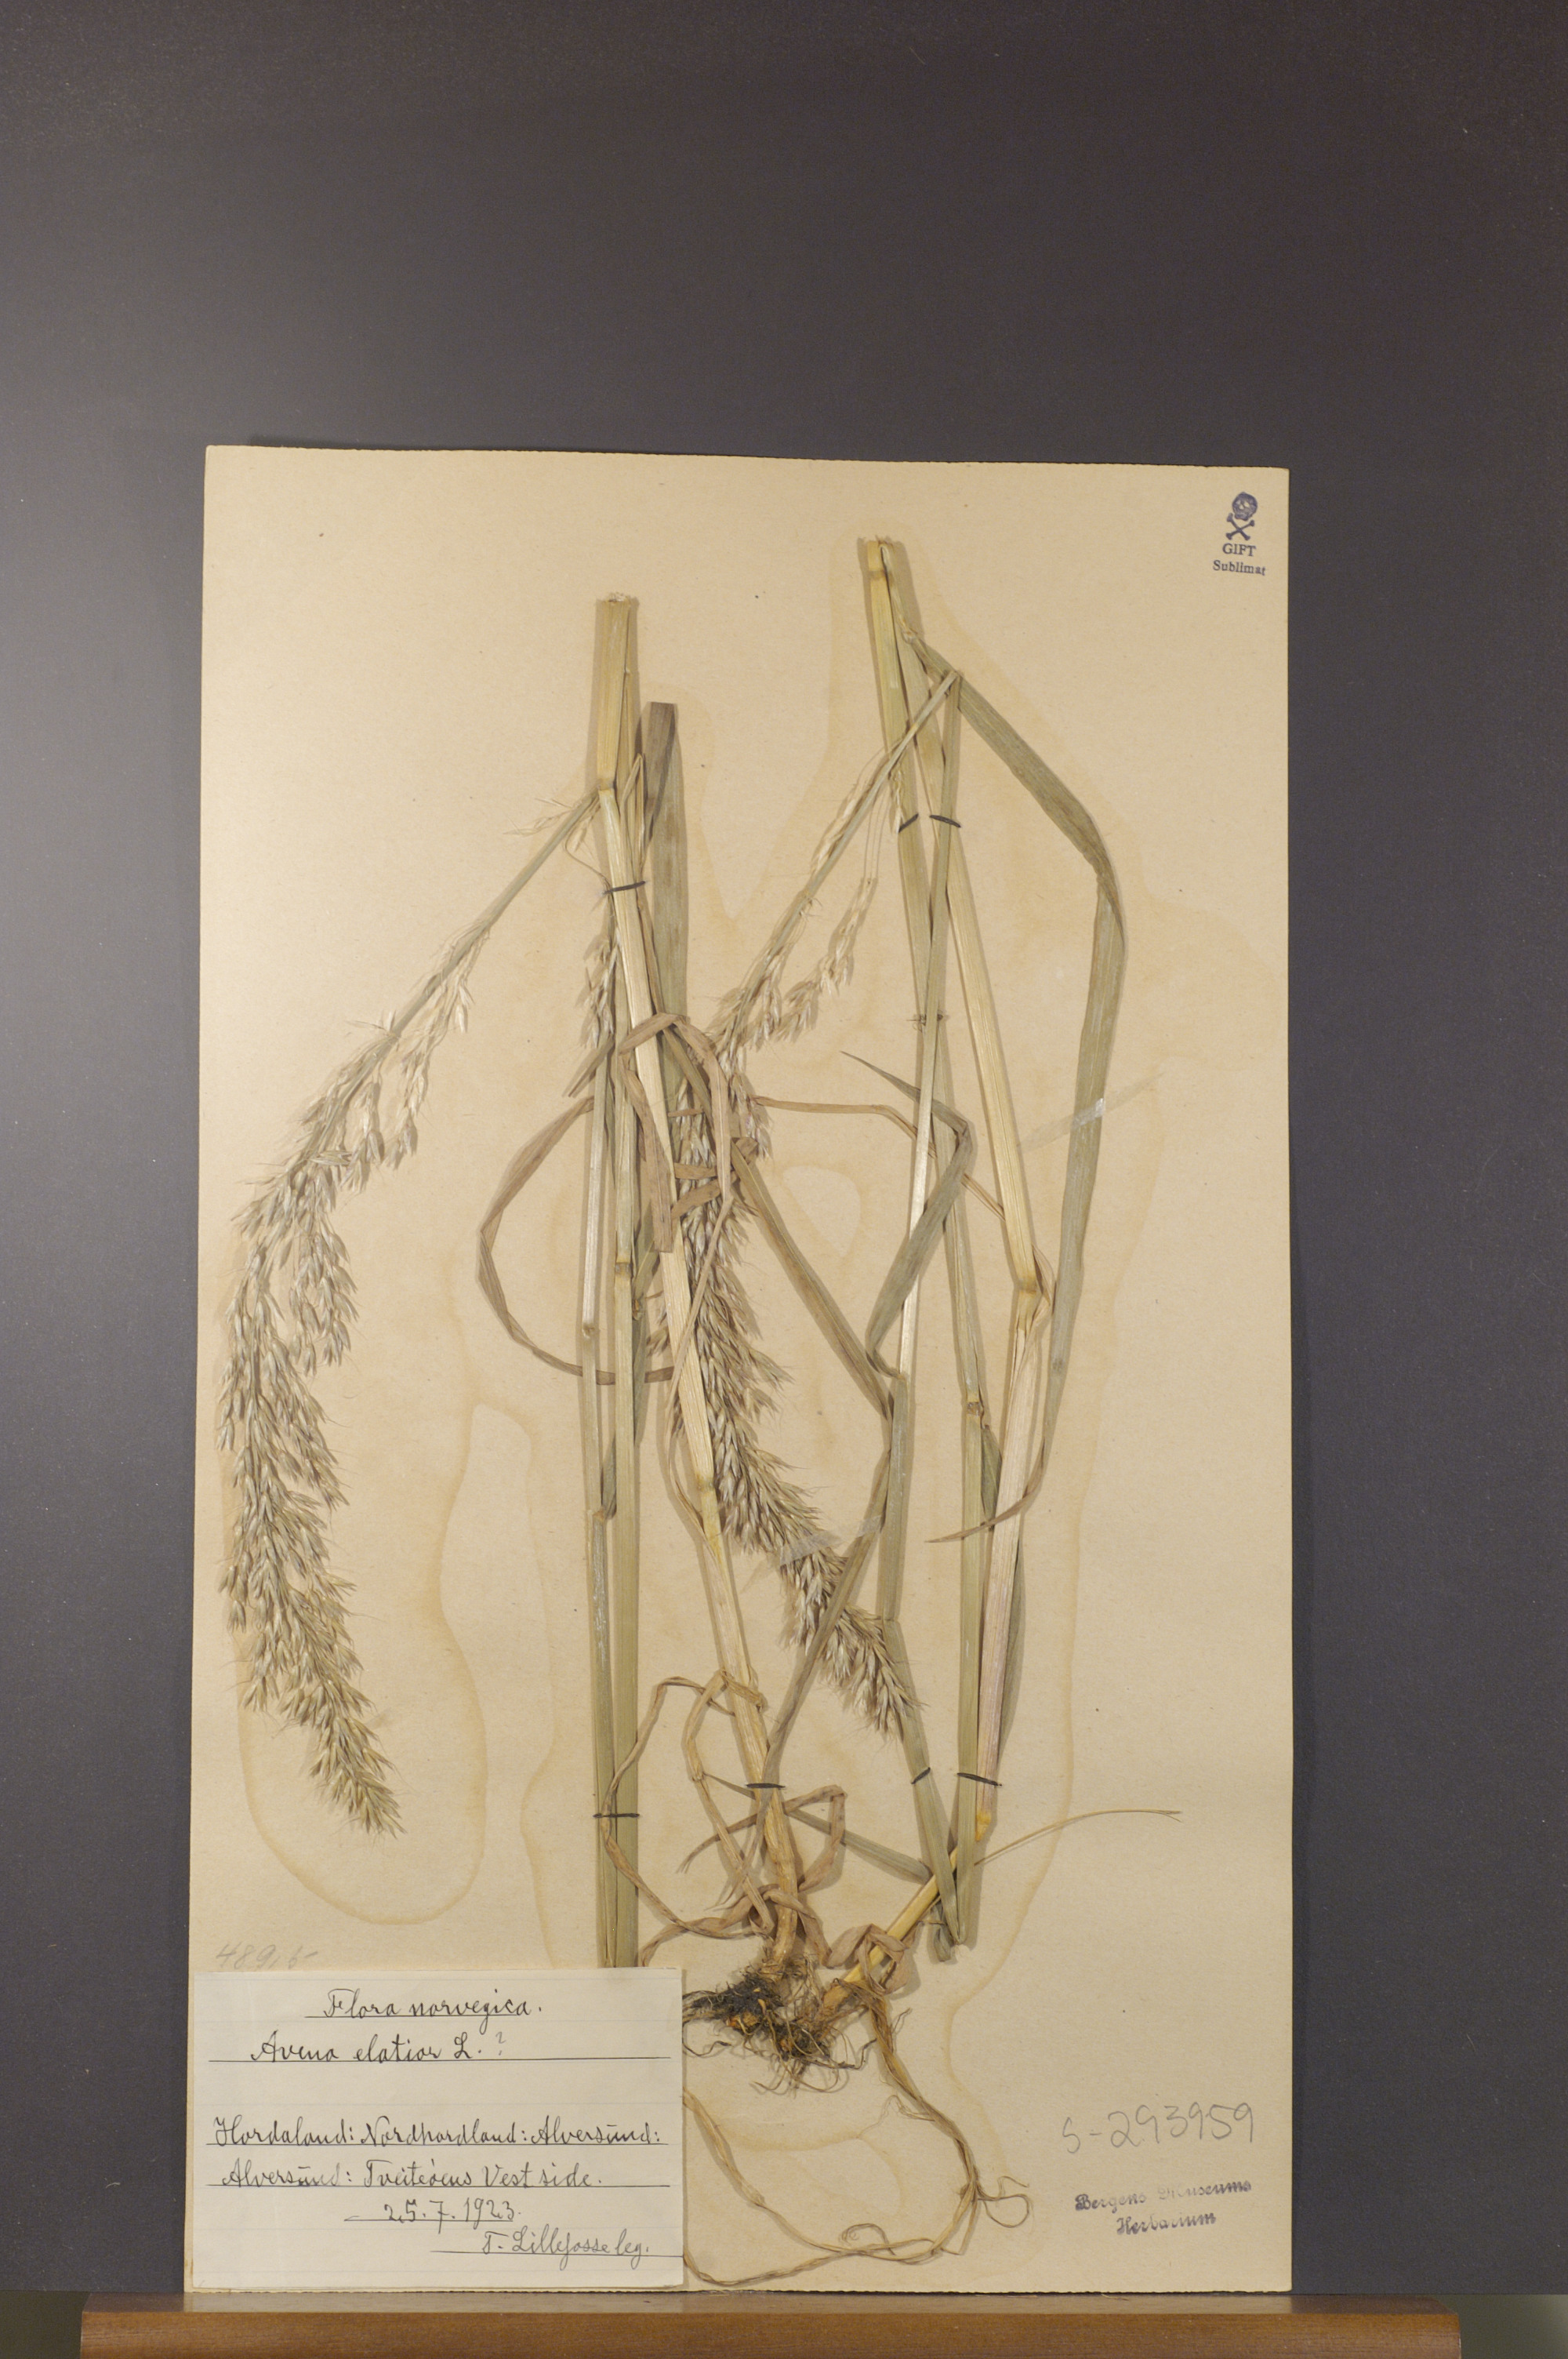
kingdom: Plantae
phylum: Tracheophyta
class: Liliopsida
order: Poales
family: Poaceae
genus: Arrhenatherum
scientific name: Arrhenatherum elatius
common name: Tall oatgrass
